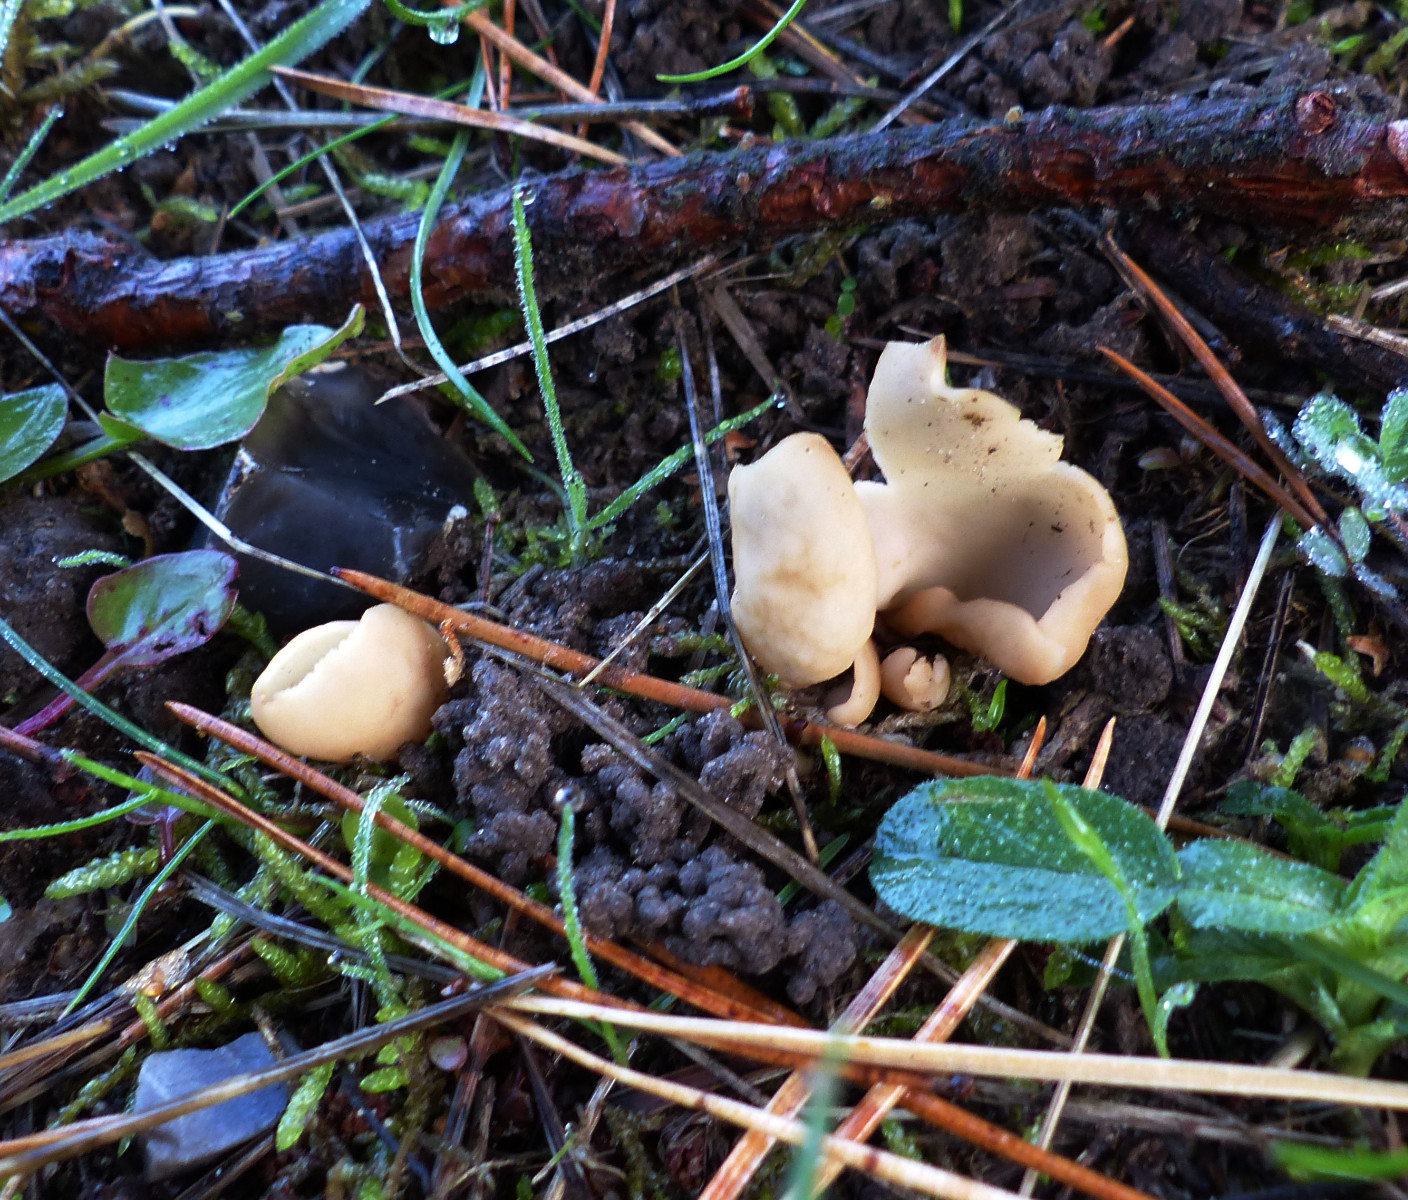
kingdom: Fungi
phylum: Ascomycota
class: Pezizomycetes
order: Pezizales
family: Otideaceae
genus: Otidea
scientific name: Otidea
